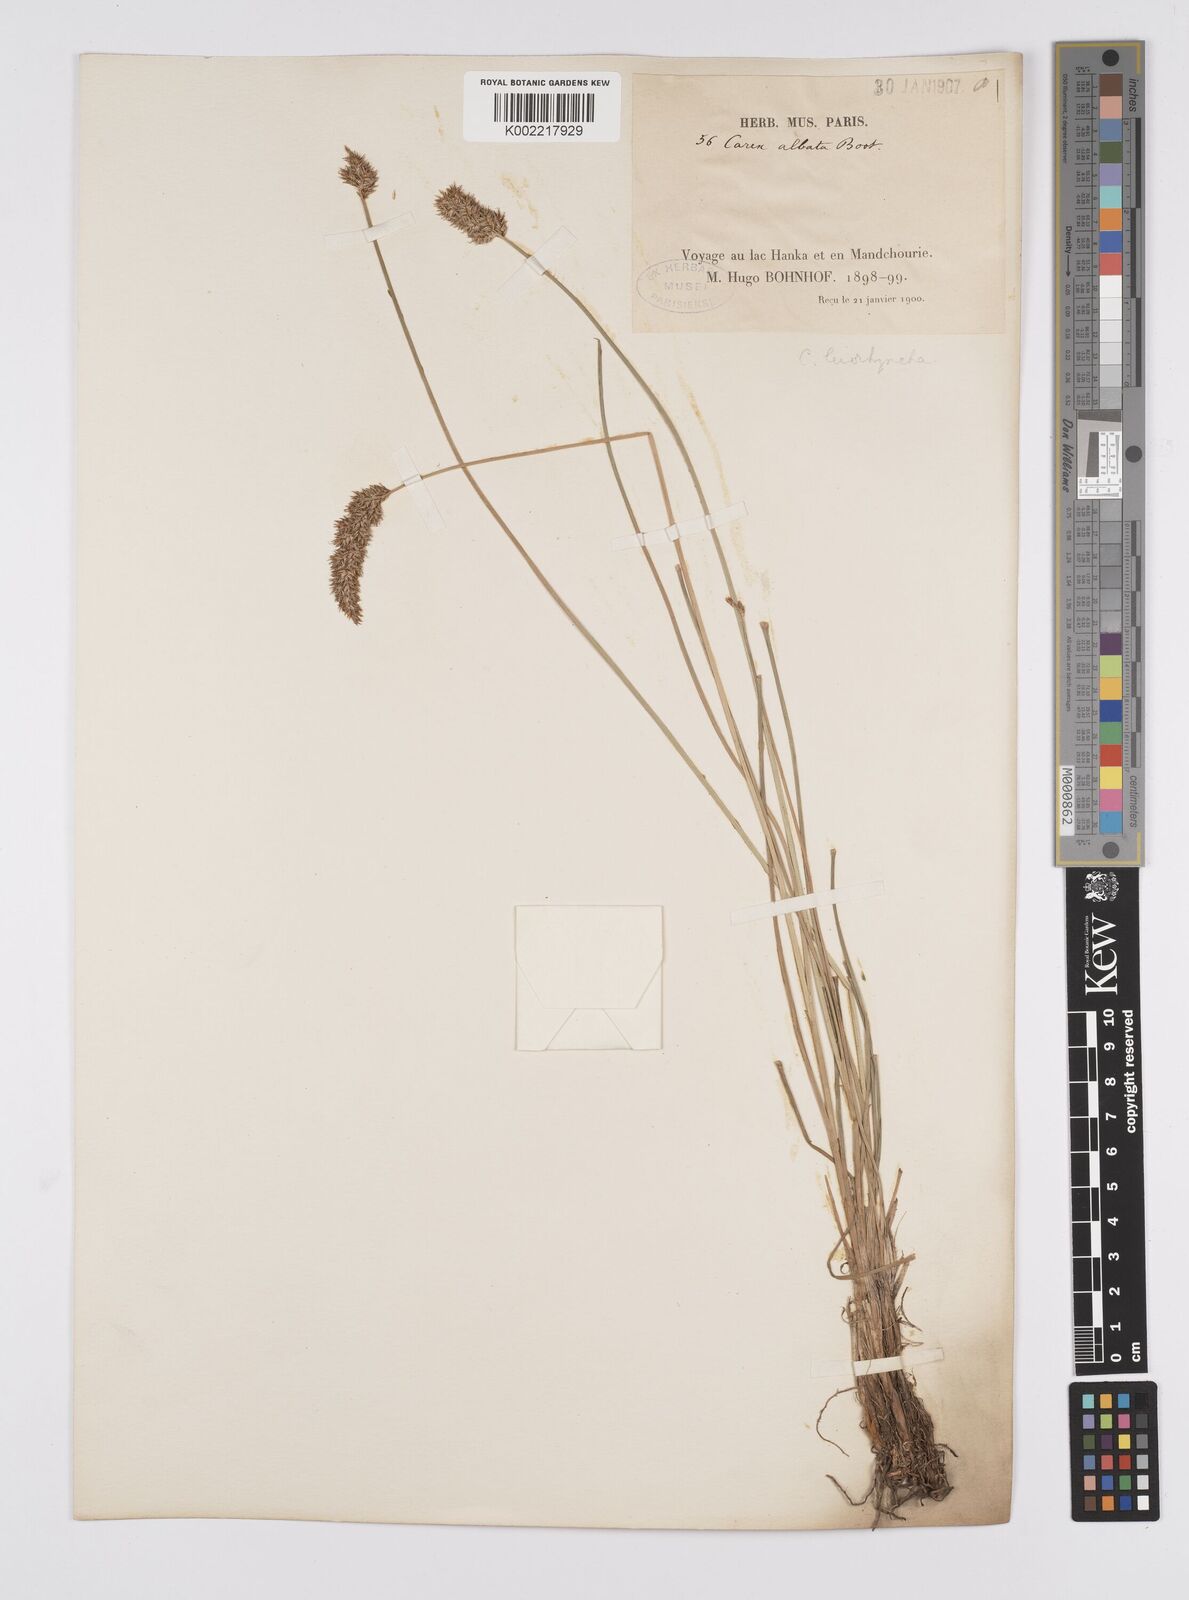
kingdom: Plantae
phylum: Tracheophyta
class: Liliopsida
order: Poales
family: Cyperaceae
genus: Carex
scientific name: Carex leiorhyncha
